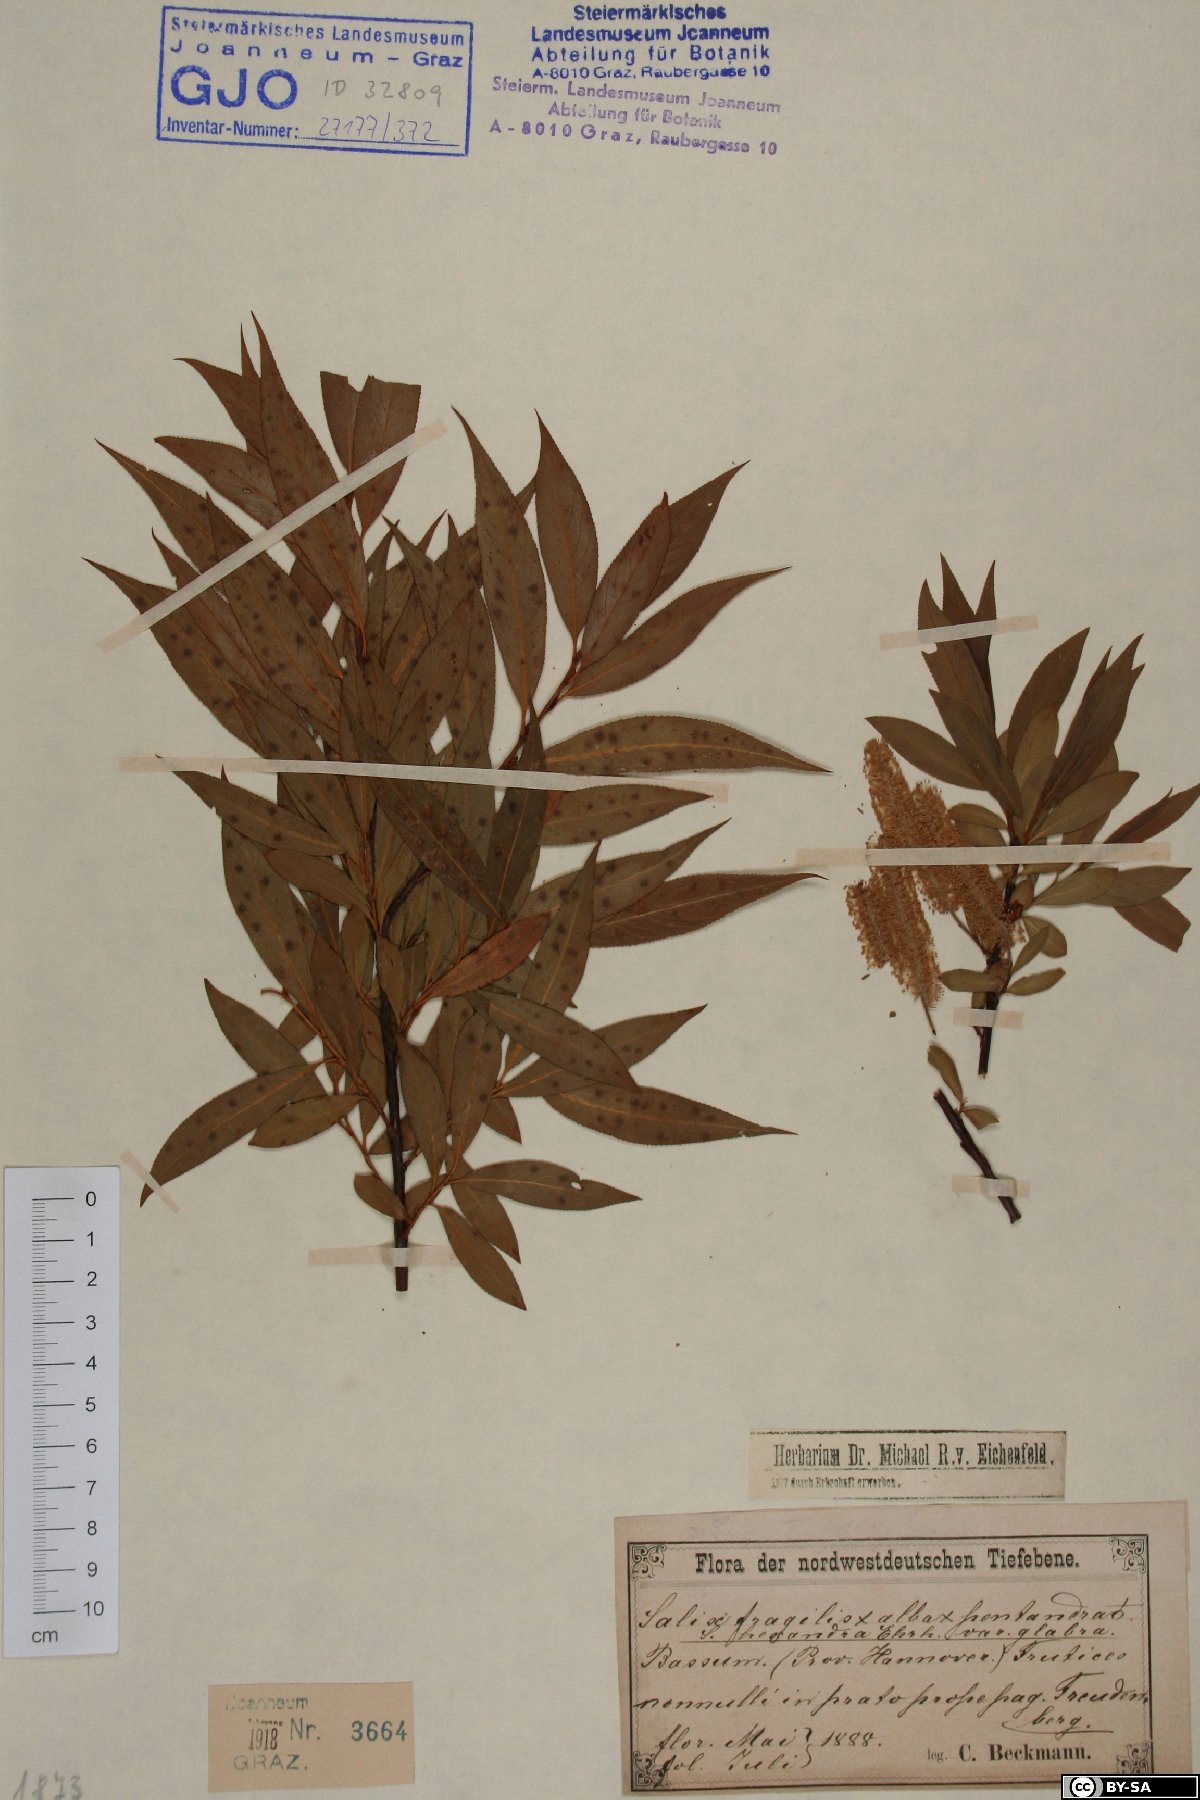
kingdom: Plantae
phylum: Tracheophyta
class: Magnoliopsida
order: Malpighiales
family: Salicaceae
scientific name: Salicaceae
